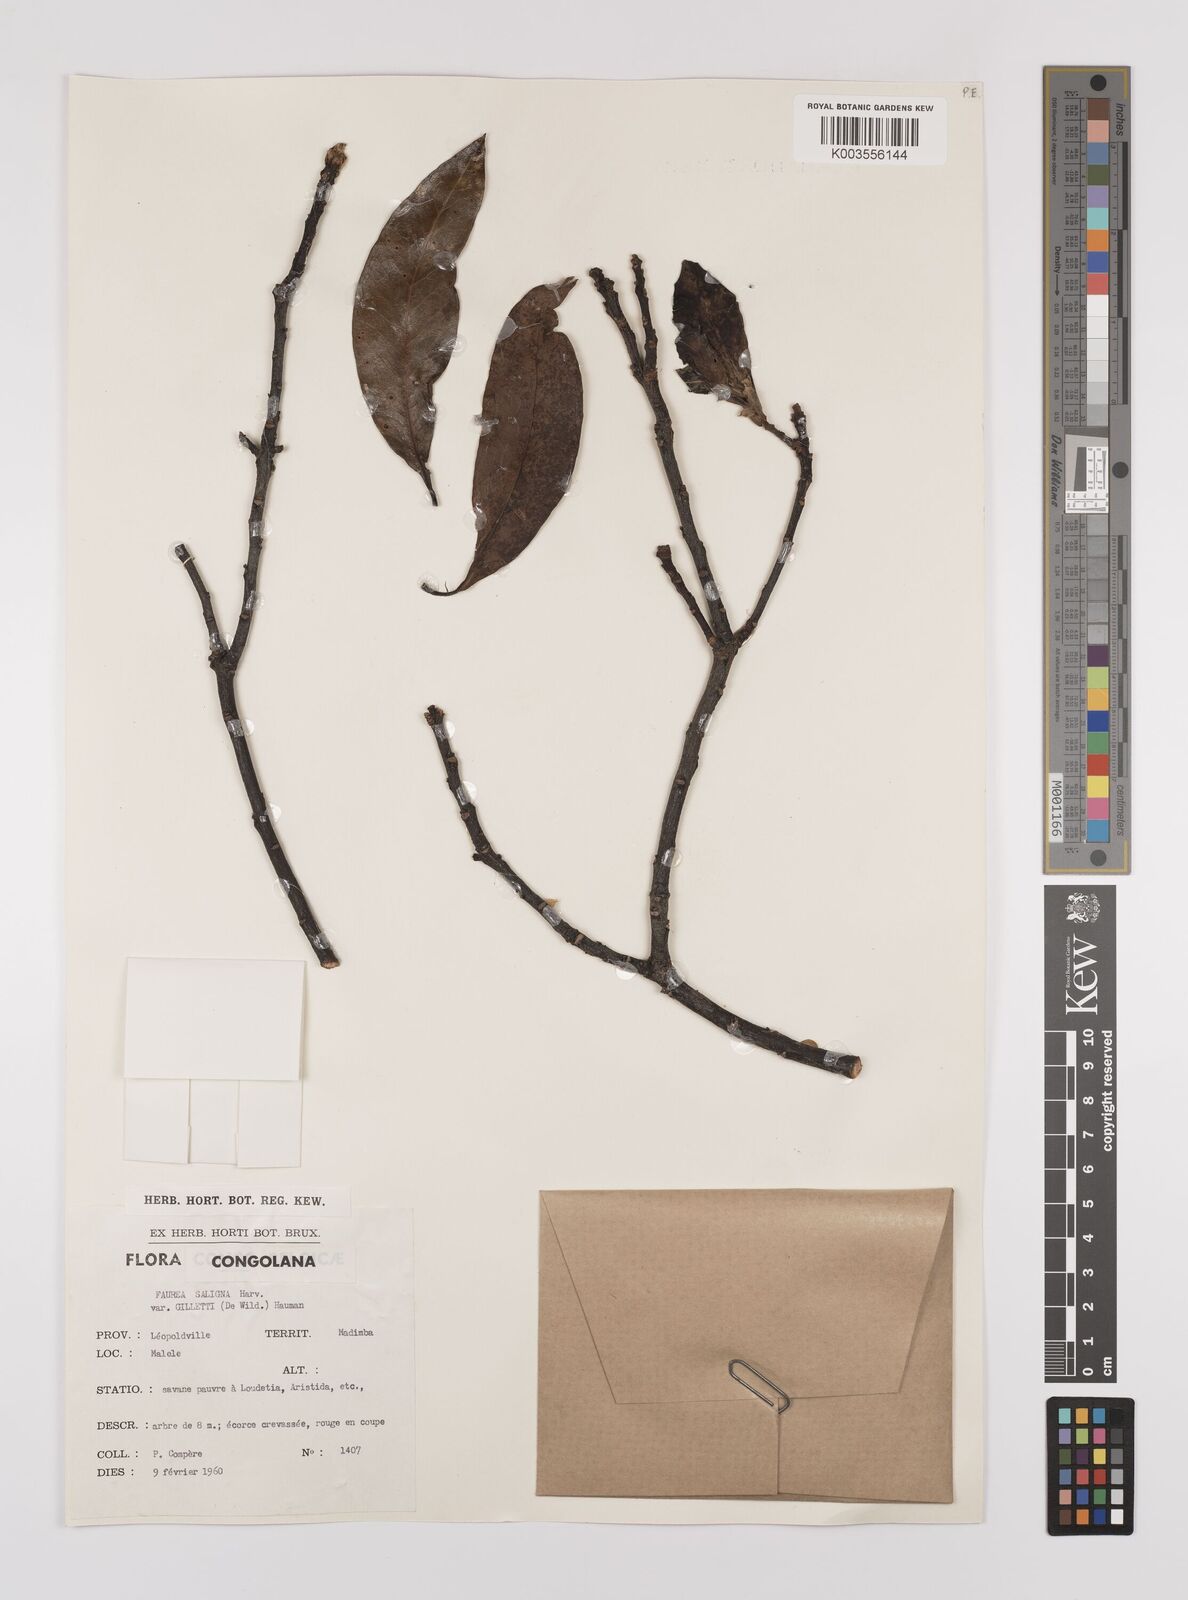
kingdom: Plantae
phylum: Tracheophyta
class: Magnoliopsida
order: Proteales
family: Proteaceae
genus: Faurea
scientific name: Faurea saligna
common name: African bean
